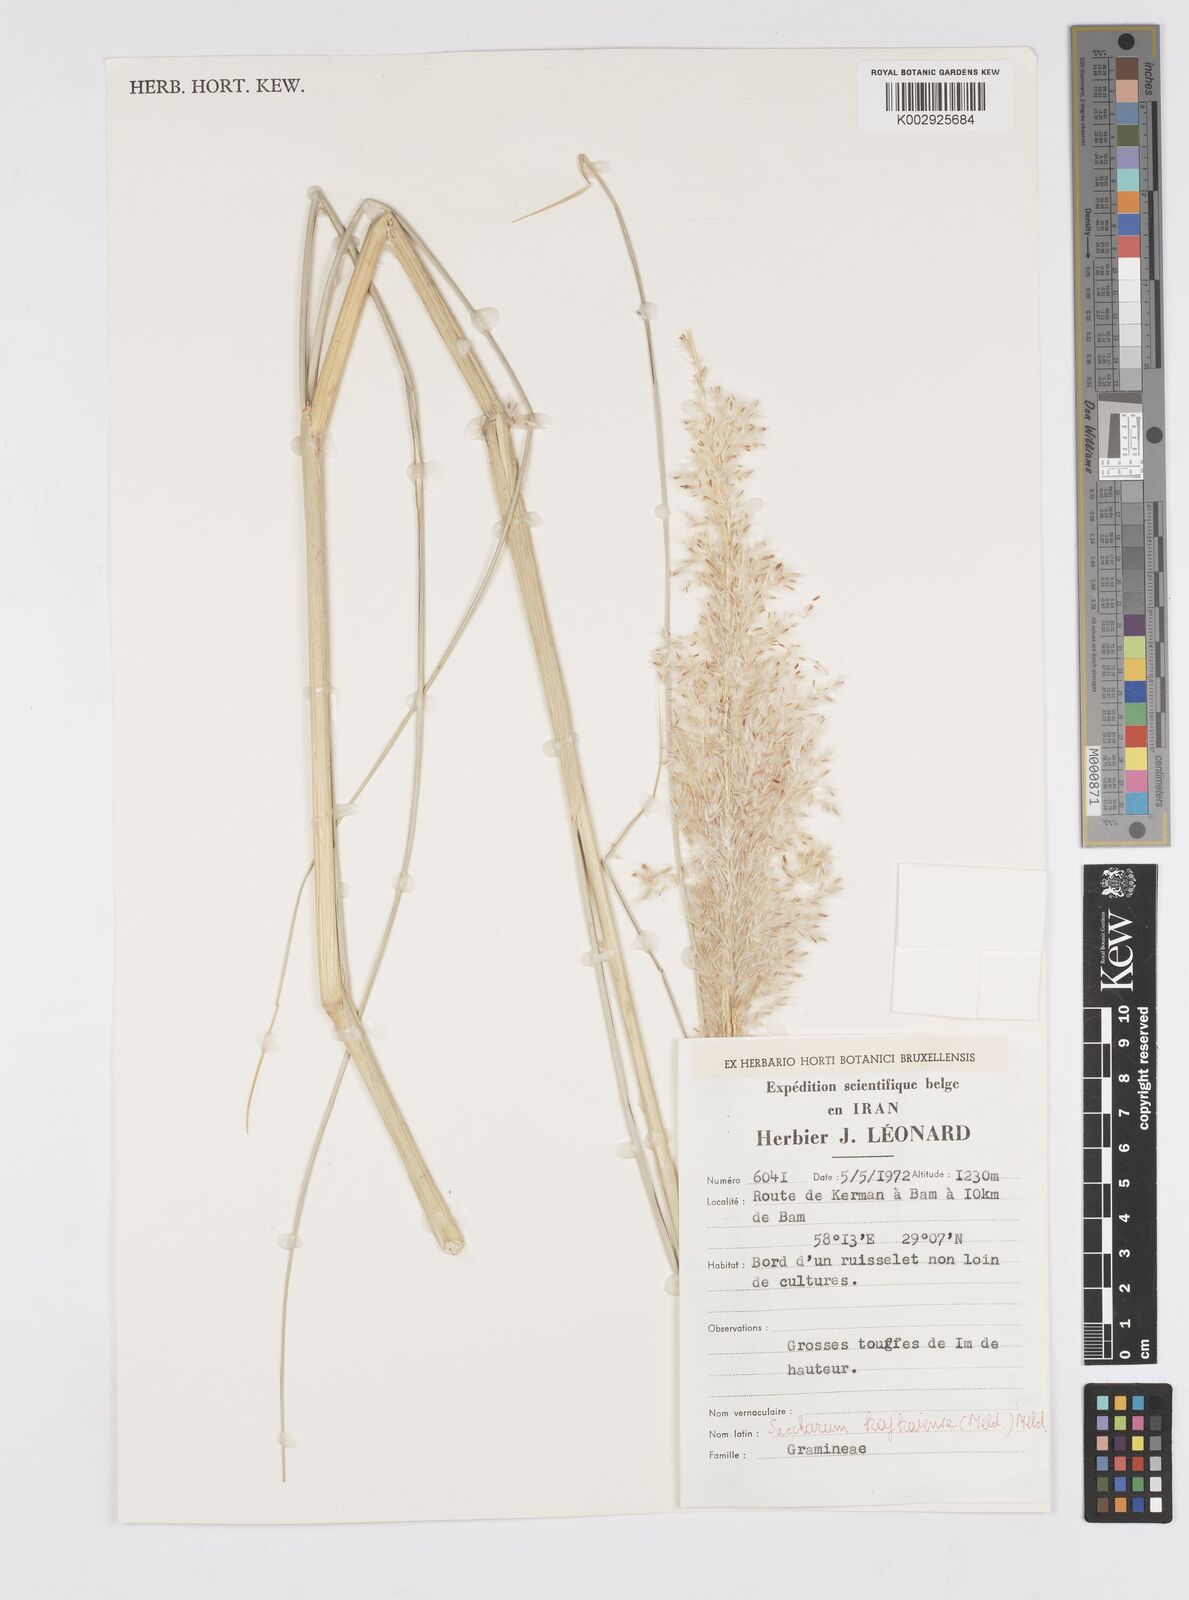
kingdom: Plantae
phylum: Tracheophyta
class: Liliopsida
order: Poales
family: Poaceae
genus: Saccharum
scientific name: Saccharum kajkaiense
